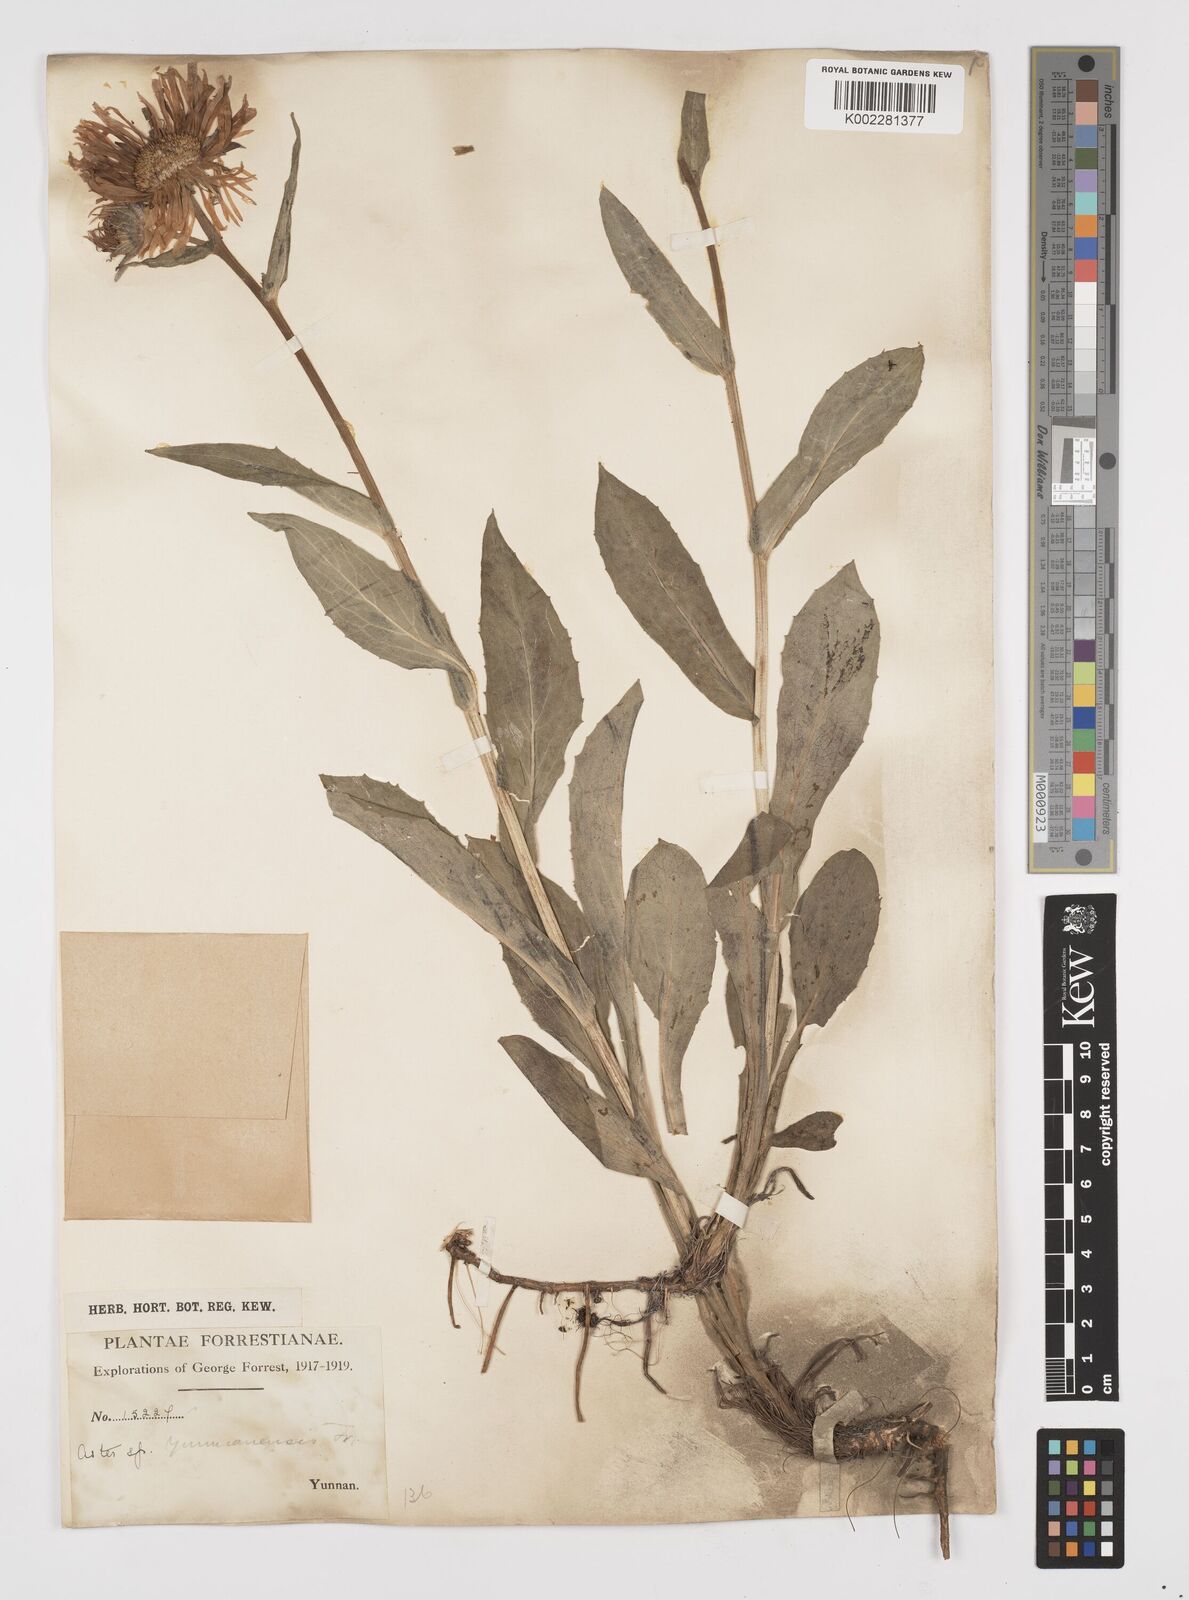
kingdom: Plantae
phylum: Tracheophyta
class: Magnoliopsida
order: Asterales
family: Asteraceae
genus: Tibetiodes
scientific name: Tibetiodes diplostephioides
